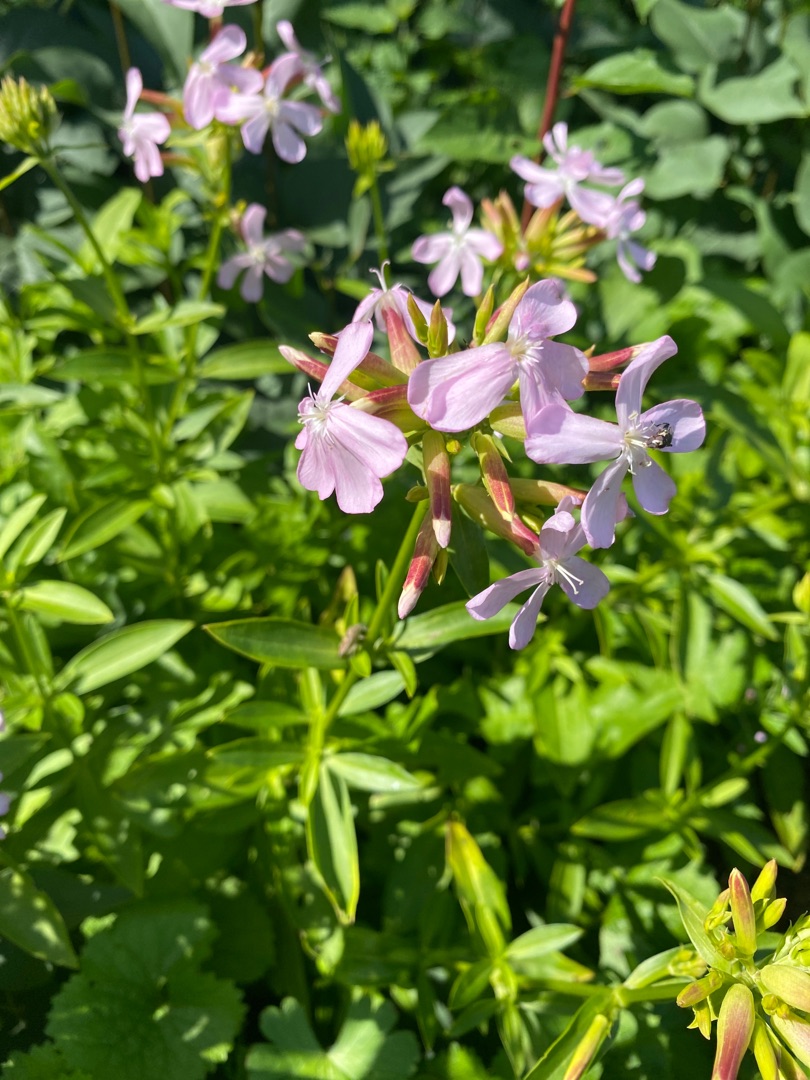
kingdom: Plantae
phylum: Tracheophyta
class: Magnoliopsida
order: Caryophyllales
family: Caryophyllaceae
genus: Saponaria
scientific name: Saponaria officinalis
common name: Sæbeurt
